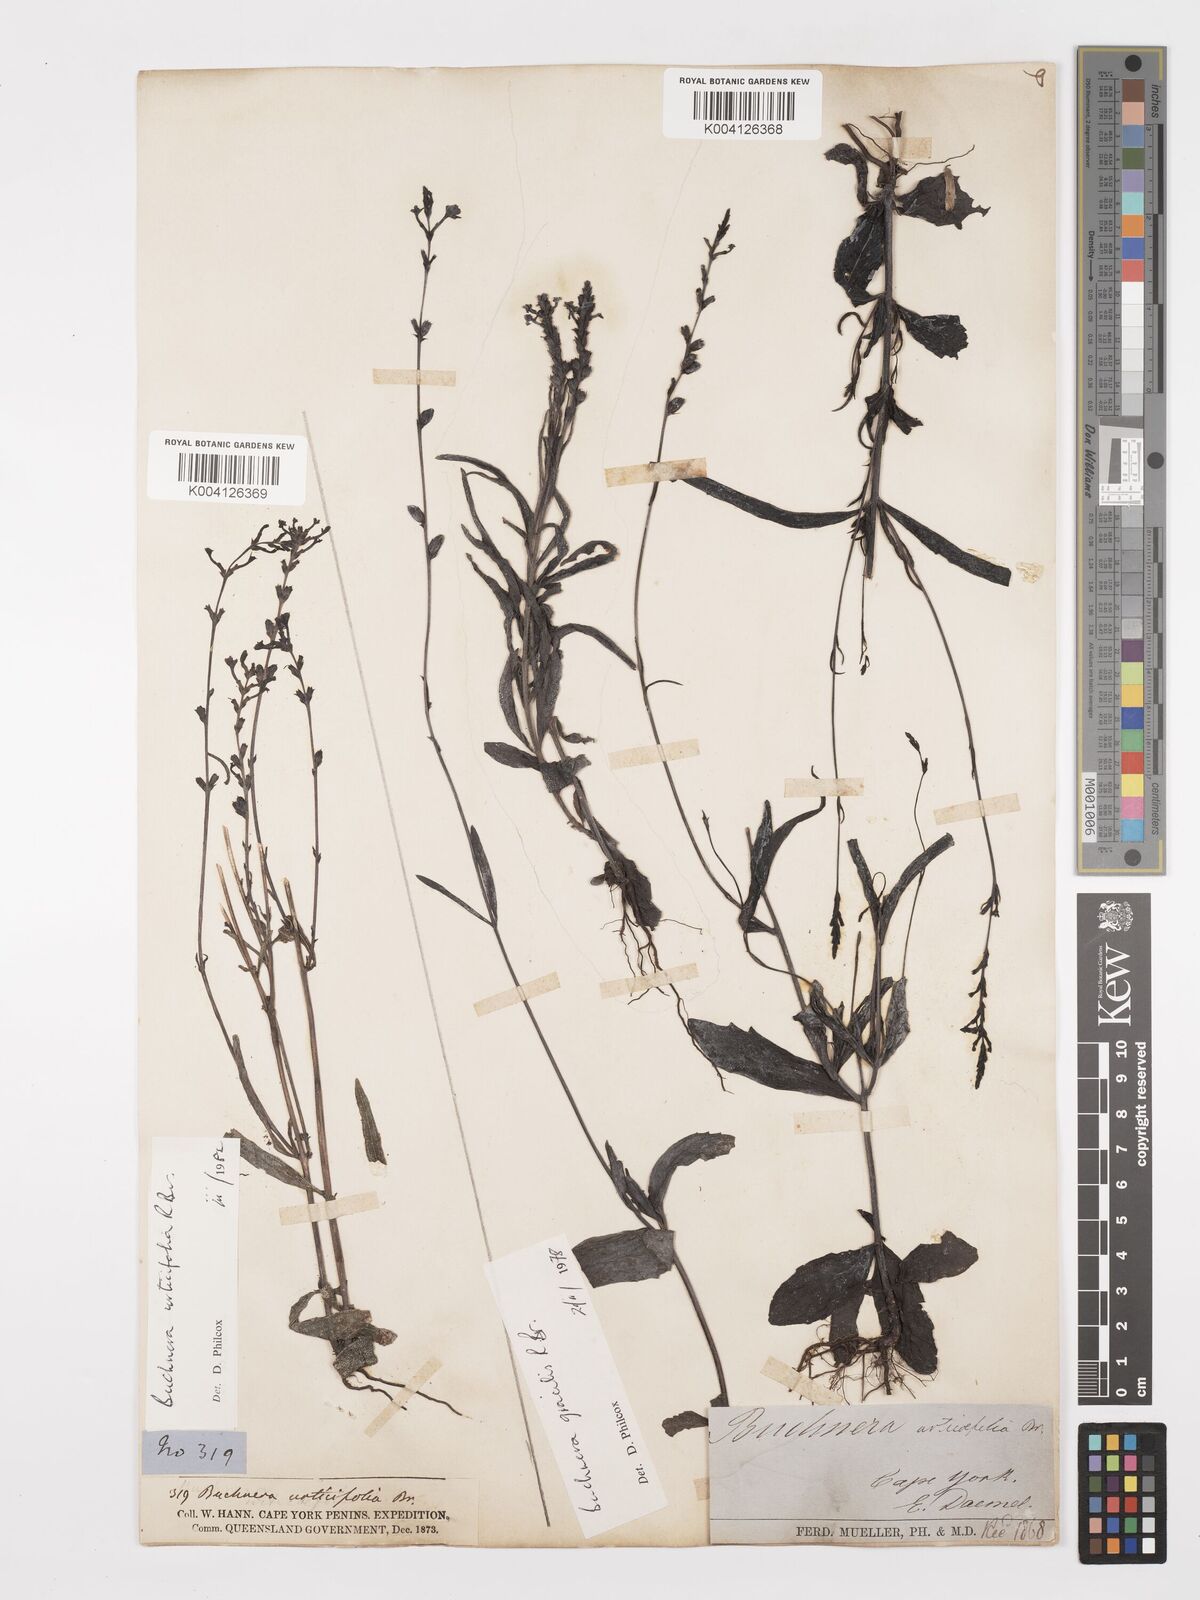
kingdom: Plantae
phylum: Tracheophyta
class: Magnoliopsida
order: Lamiales
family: Orobanchaceae
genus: Buchnera
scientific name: Buchnera gracilis
